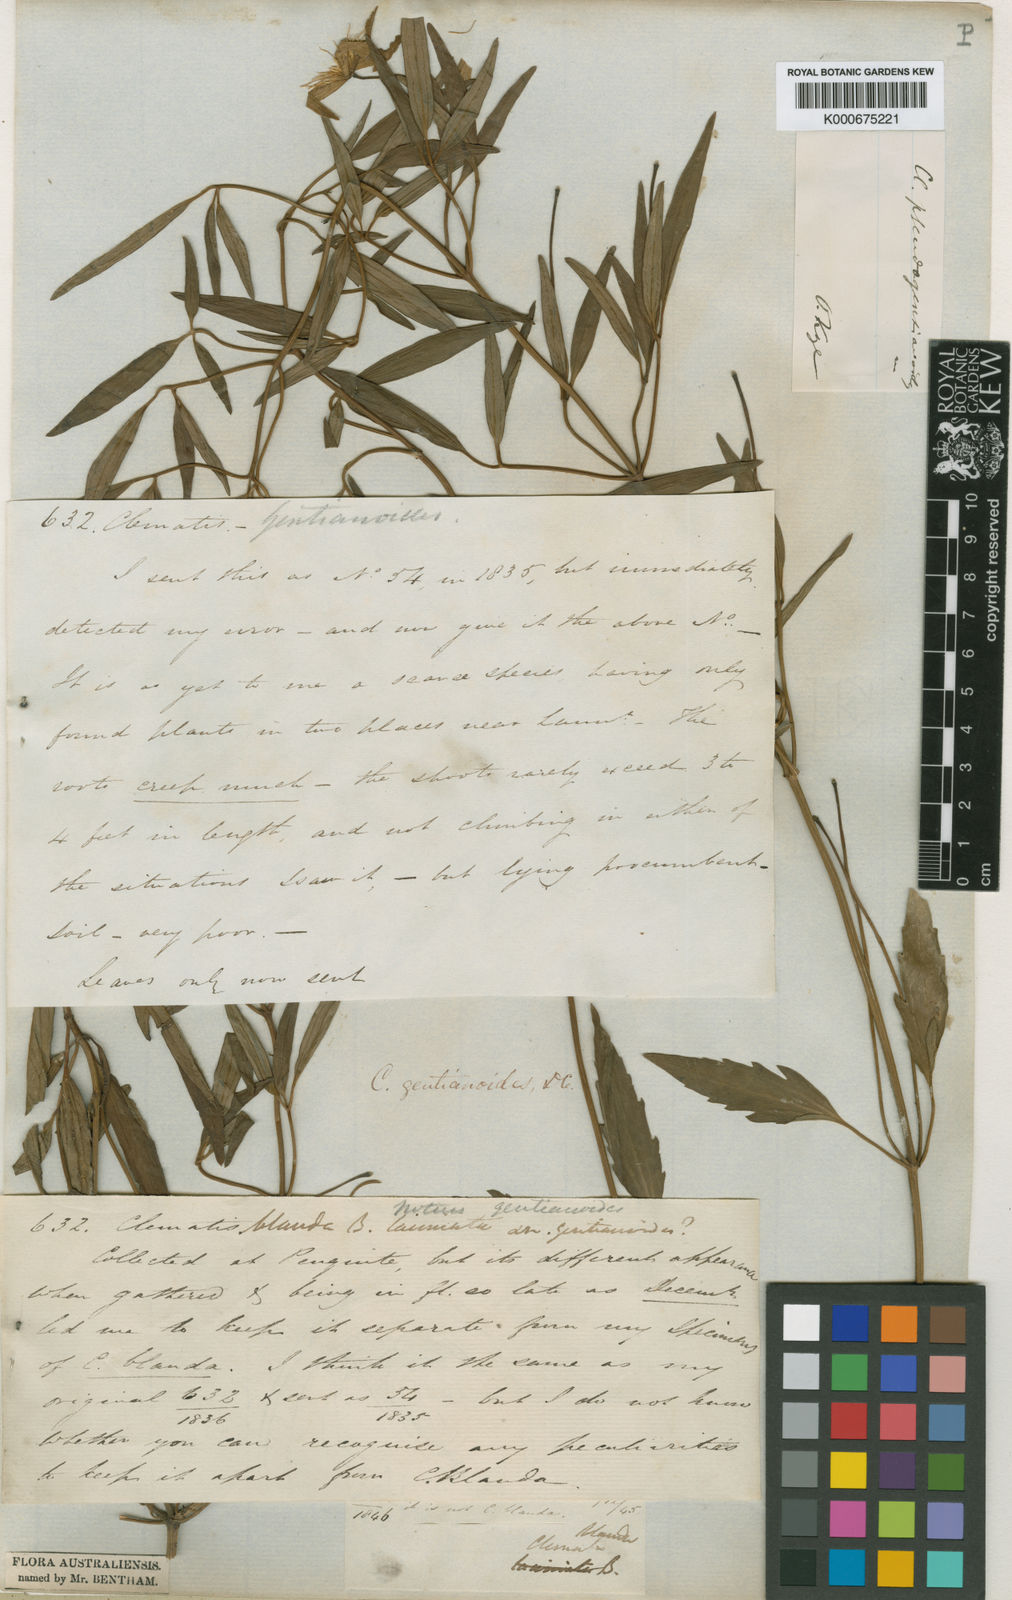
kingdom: Plantae
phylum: Tracheophyta
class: Magnoliopsida
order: Ranunculales
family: Ranunculaceae
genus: Clematis
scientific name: Clematis gentianoides
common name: Bushy clematis
